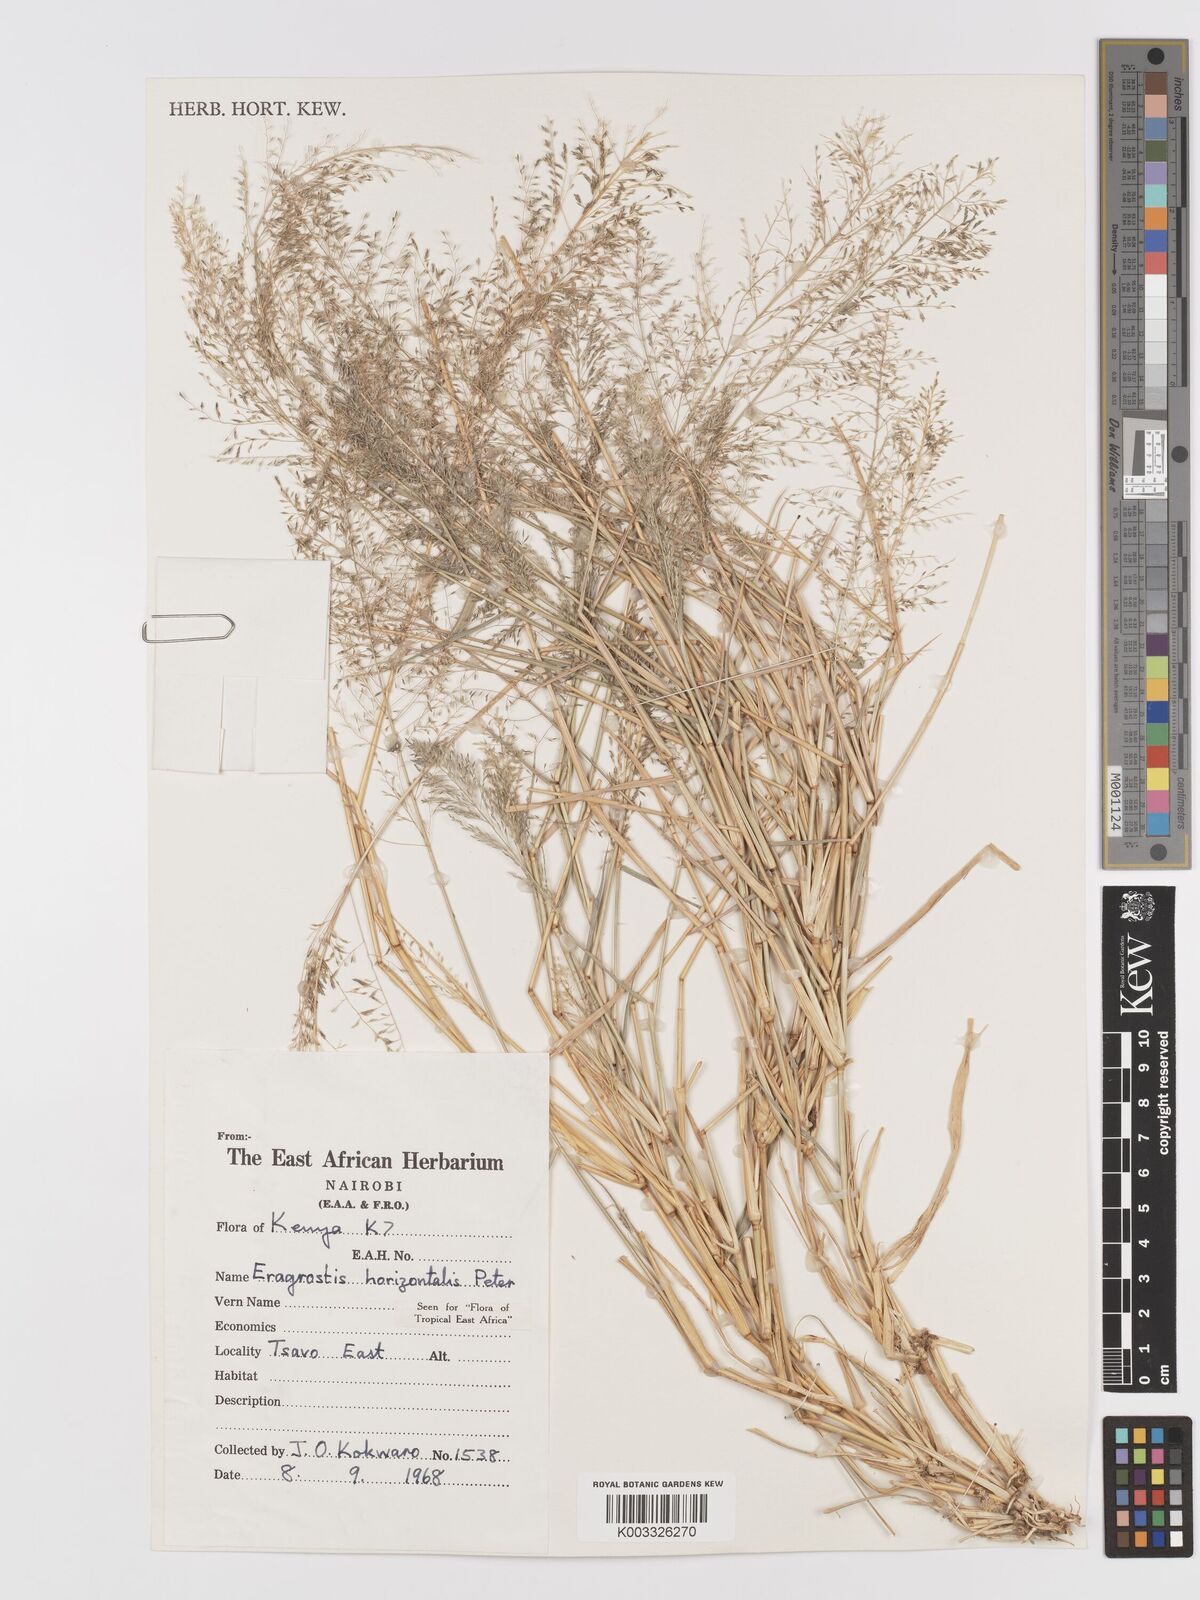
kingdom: Plantae
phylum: Tracheophyta
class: Liliopsida
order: Poales
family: Poaceae
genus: Eragrostis
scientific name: Eragrostis cylindriflora
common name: Cylinderflower lovegrass
